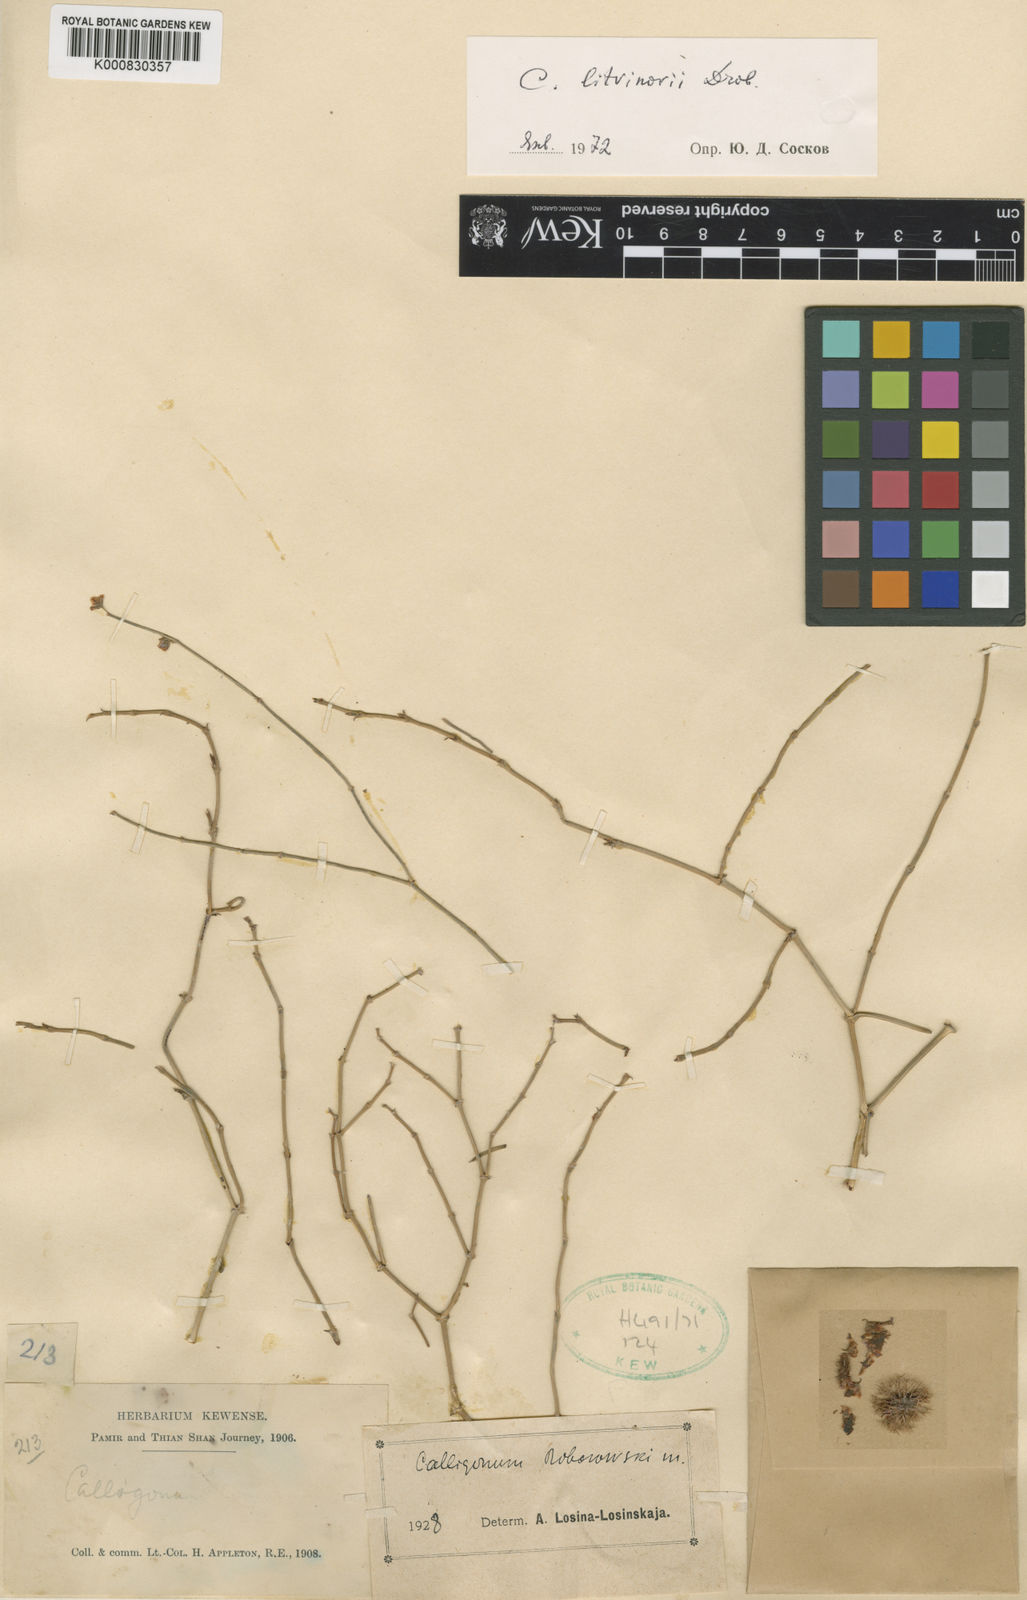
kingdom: Plantae
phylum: Tracheophyta
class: Magnoliopsida
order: Caryophyllales
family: Polygonaceae
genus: Calligonum
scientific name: Calligonum litwinowii
